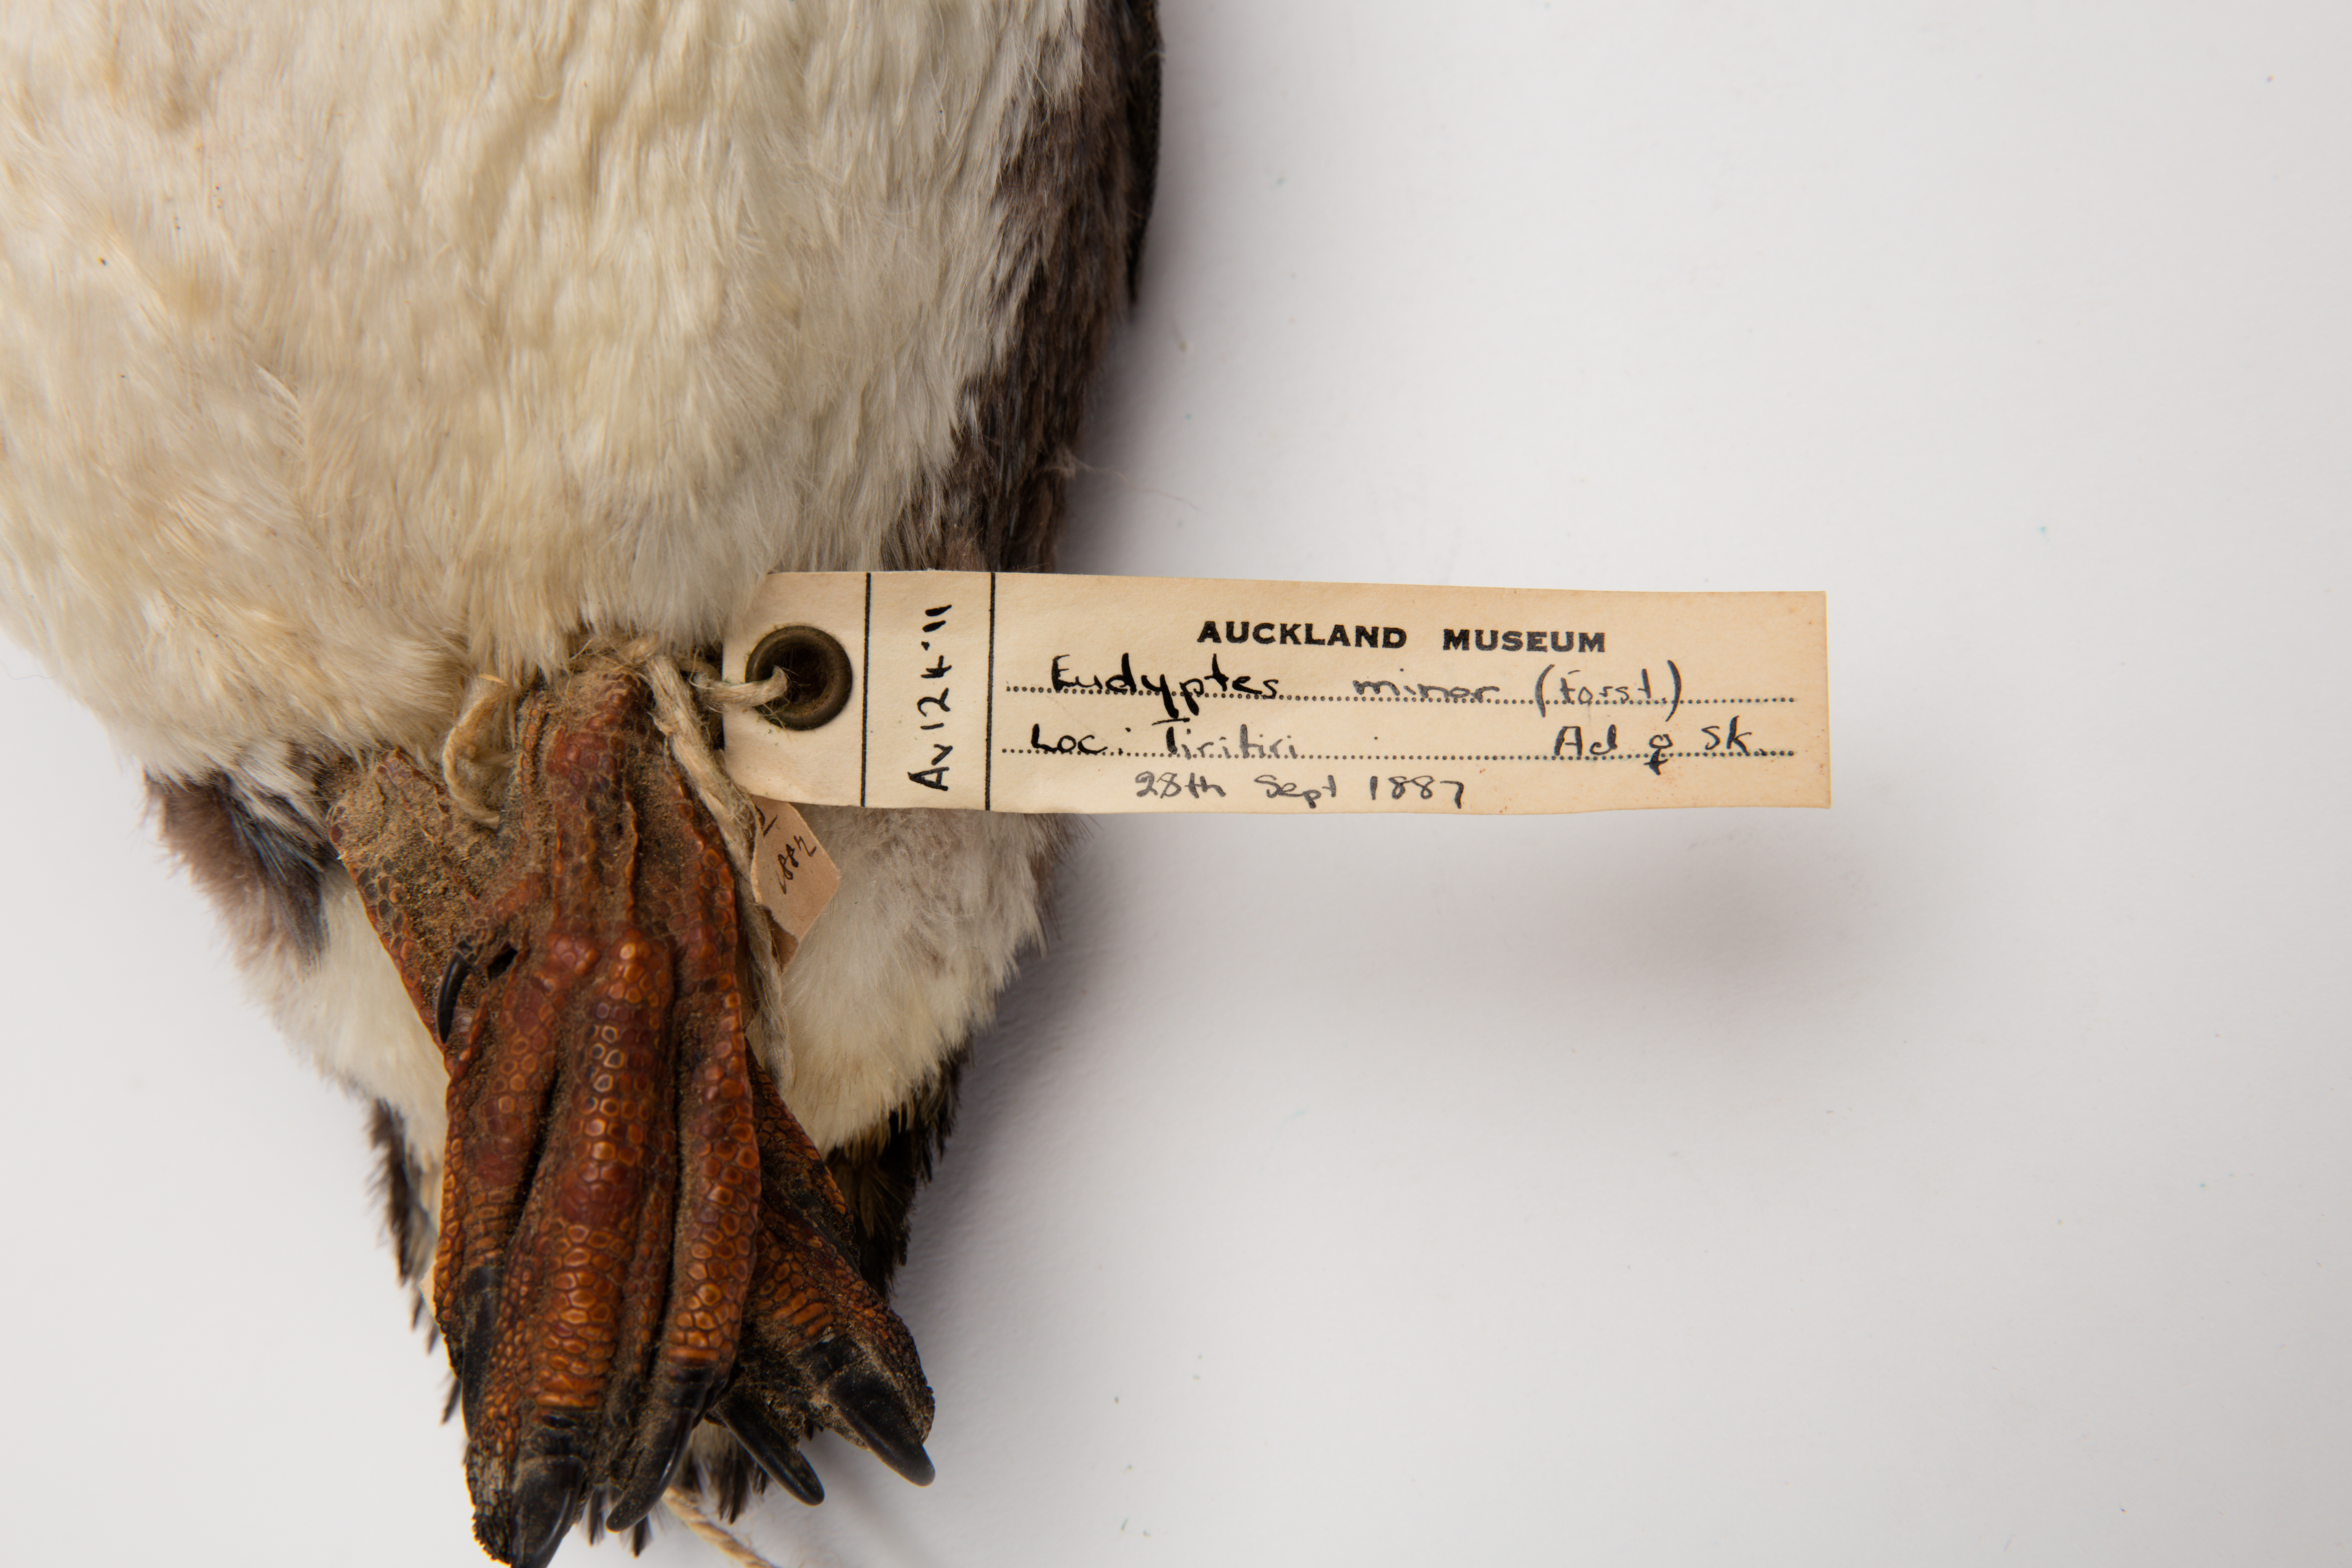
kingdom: Animalia
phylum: Chordata
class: Aves
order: Sphenisciformes
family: Spheniscidae
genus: Eudyptula
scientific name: Eudyptula minor
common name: Little penguin
